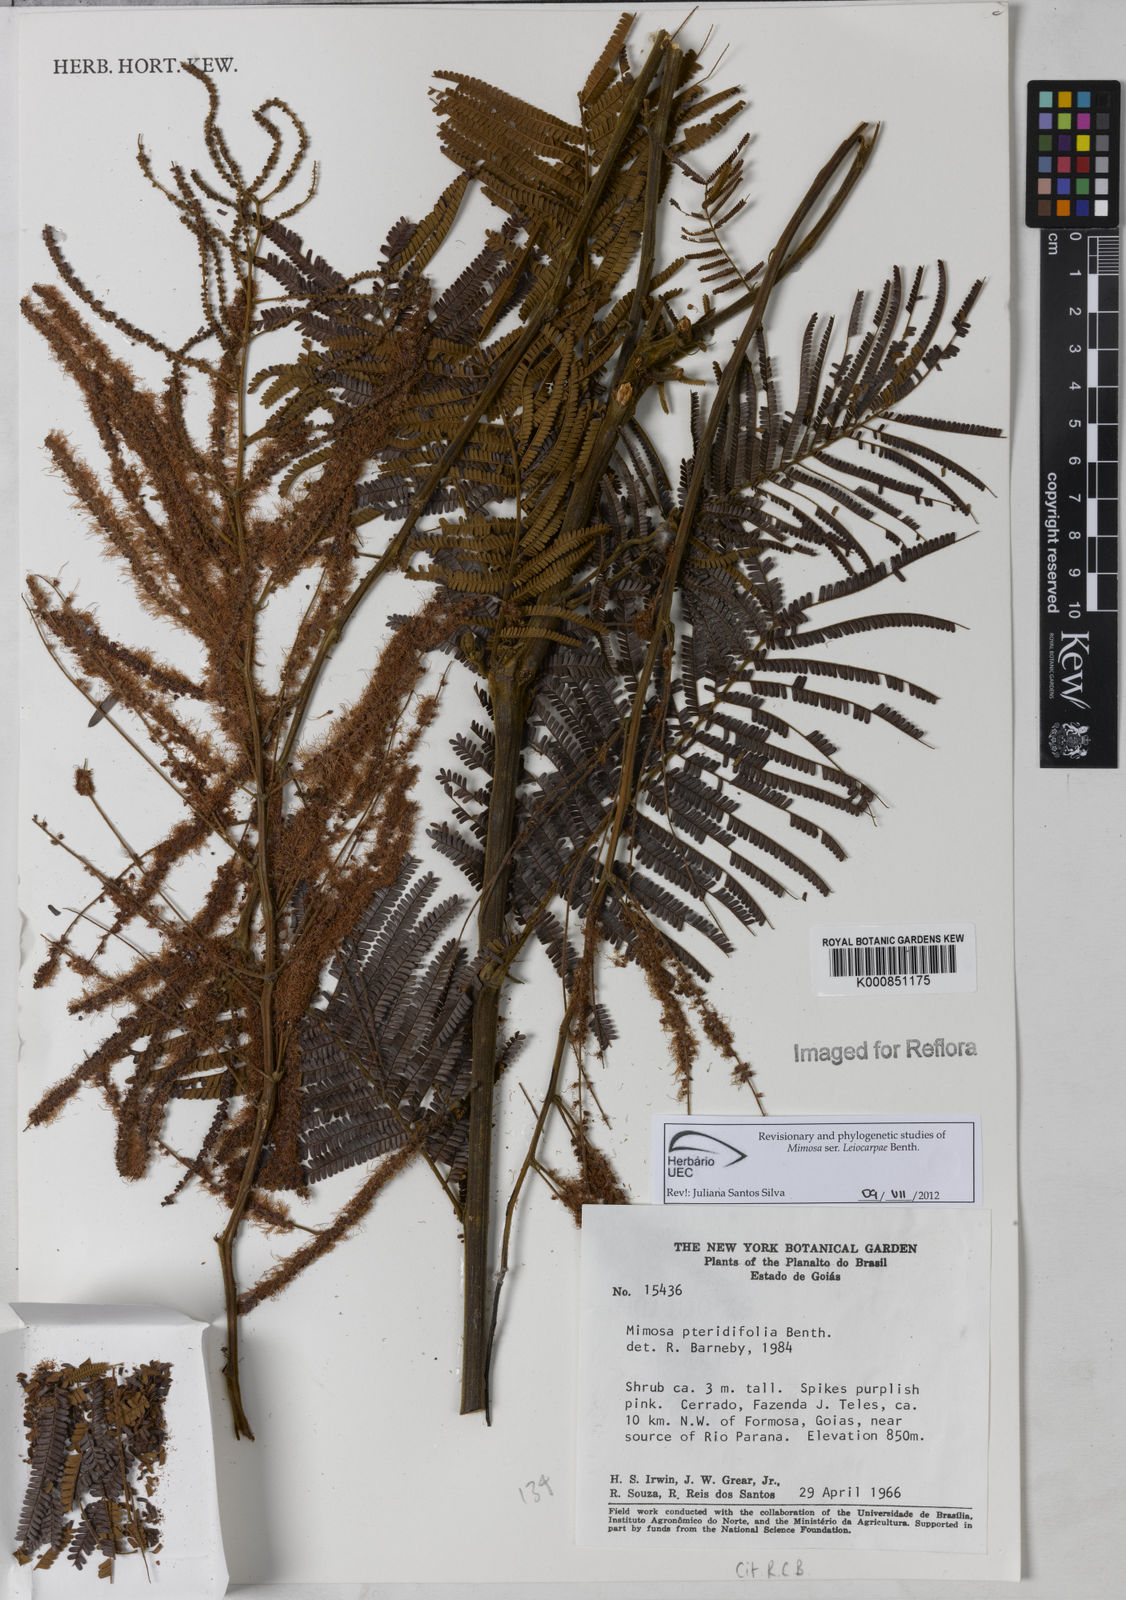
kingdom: Plantae
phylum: Tracheophyta
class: Magnoliopsida
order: Fabales
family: Fabaceae
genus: Mimosa
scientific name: Mimosa pteridifolia
